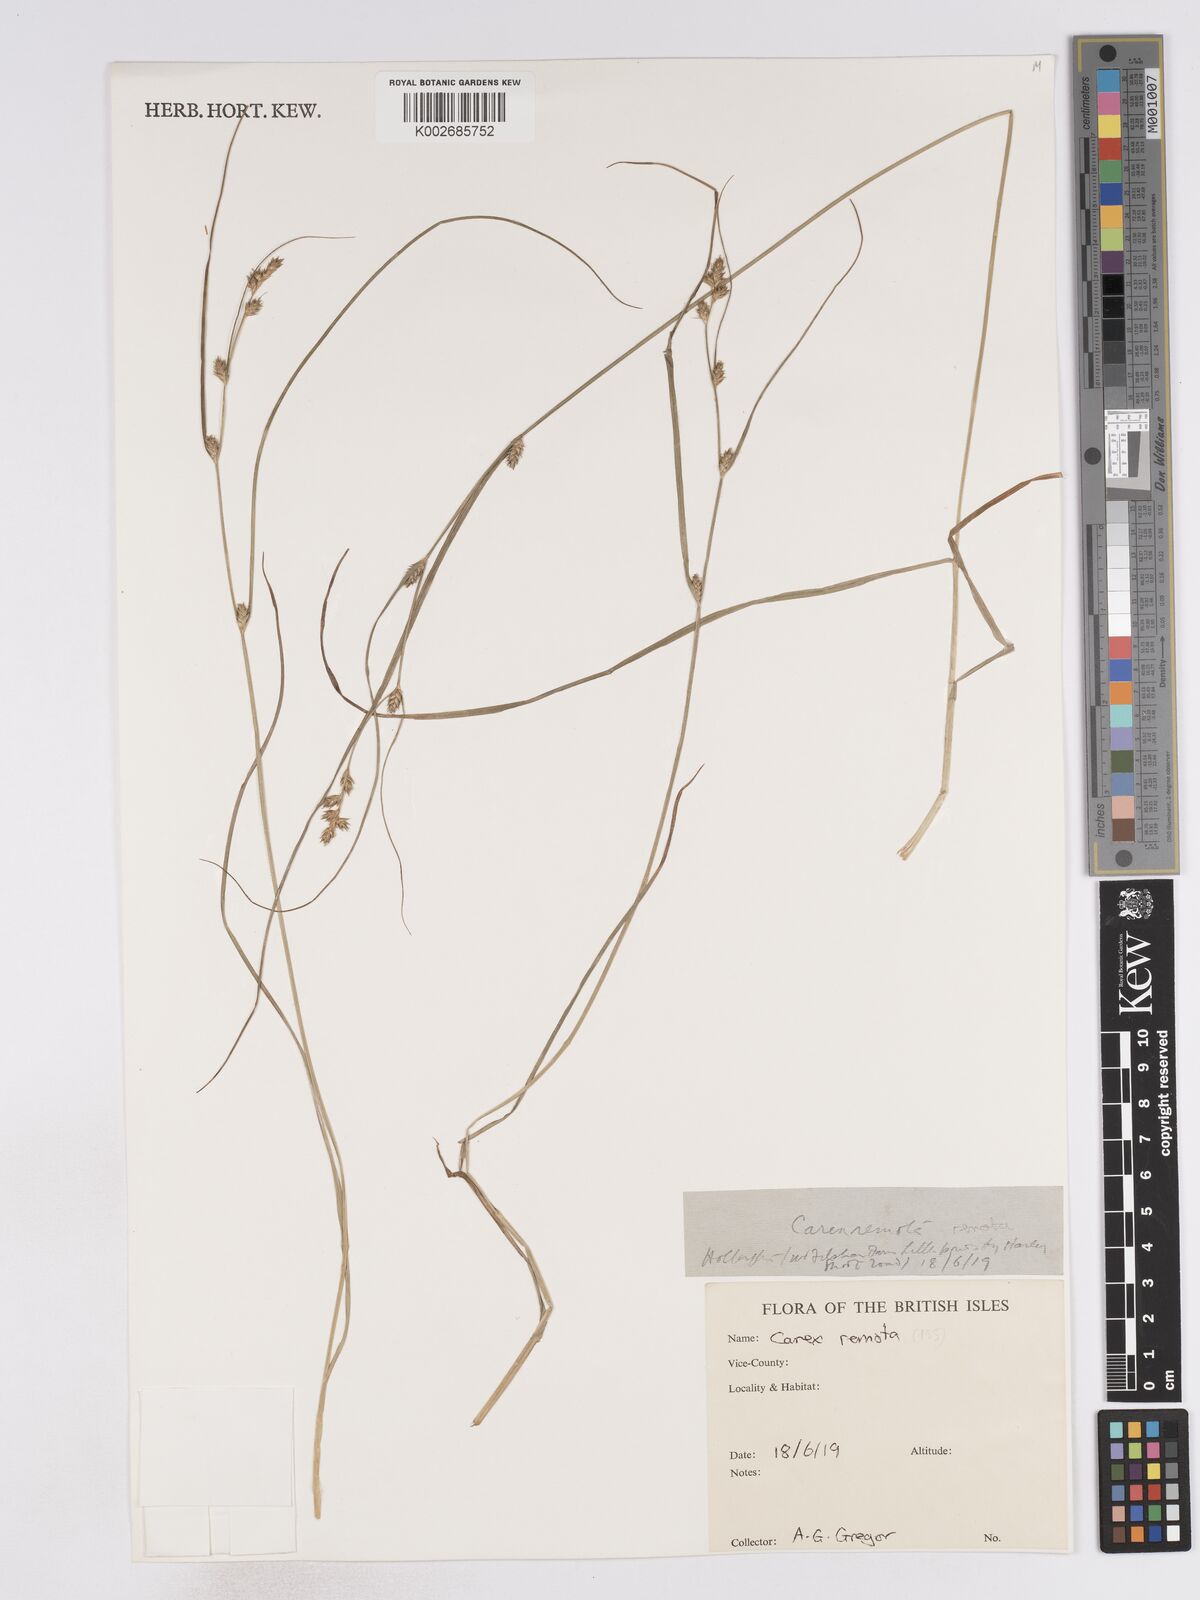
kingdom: Plantae
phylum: Tracheophyta
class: Liliopsida
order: Poales
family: Cyperaceae
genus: Carex
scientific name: Carex remota
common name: Remote sedge
